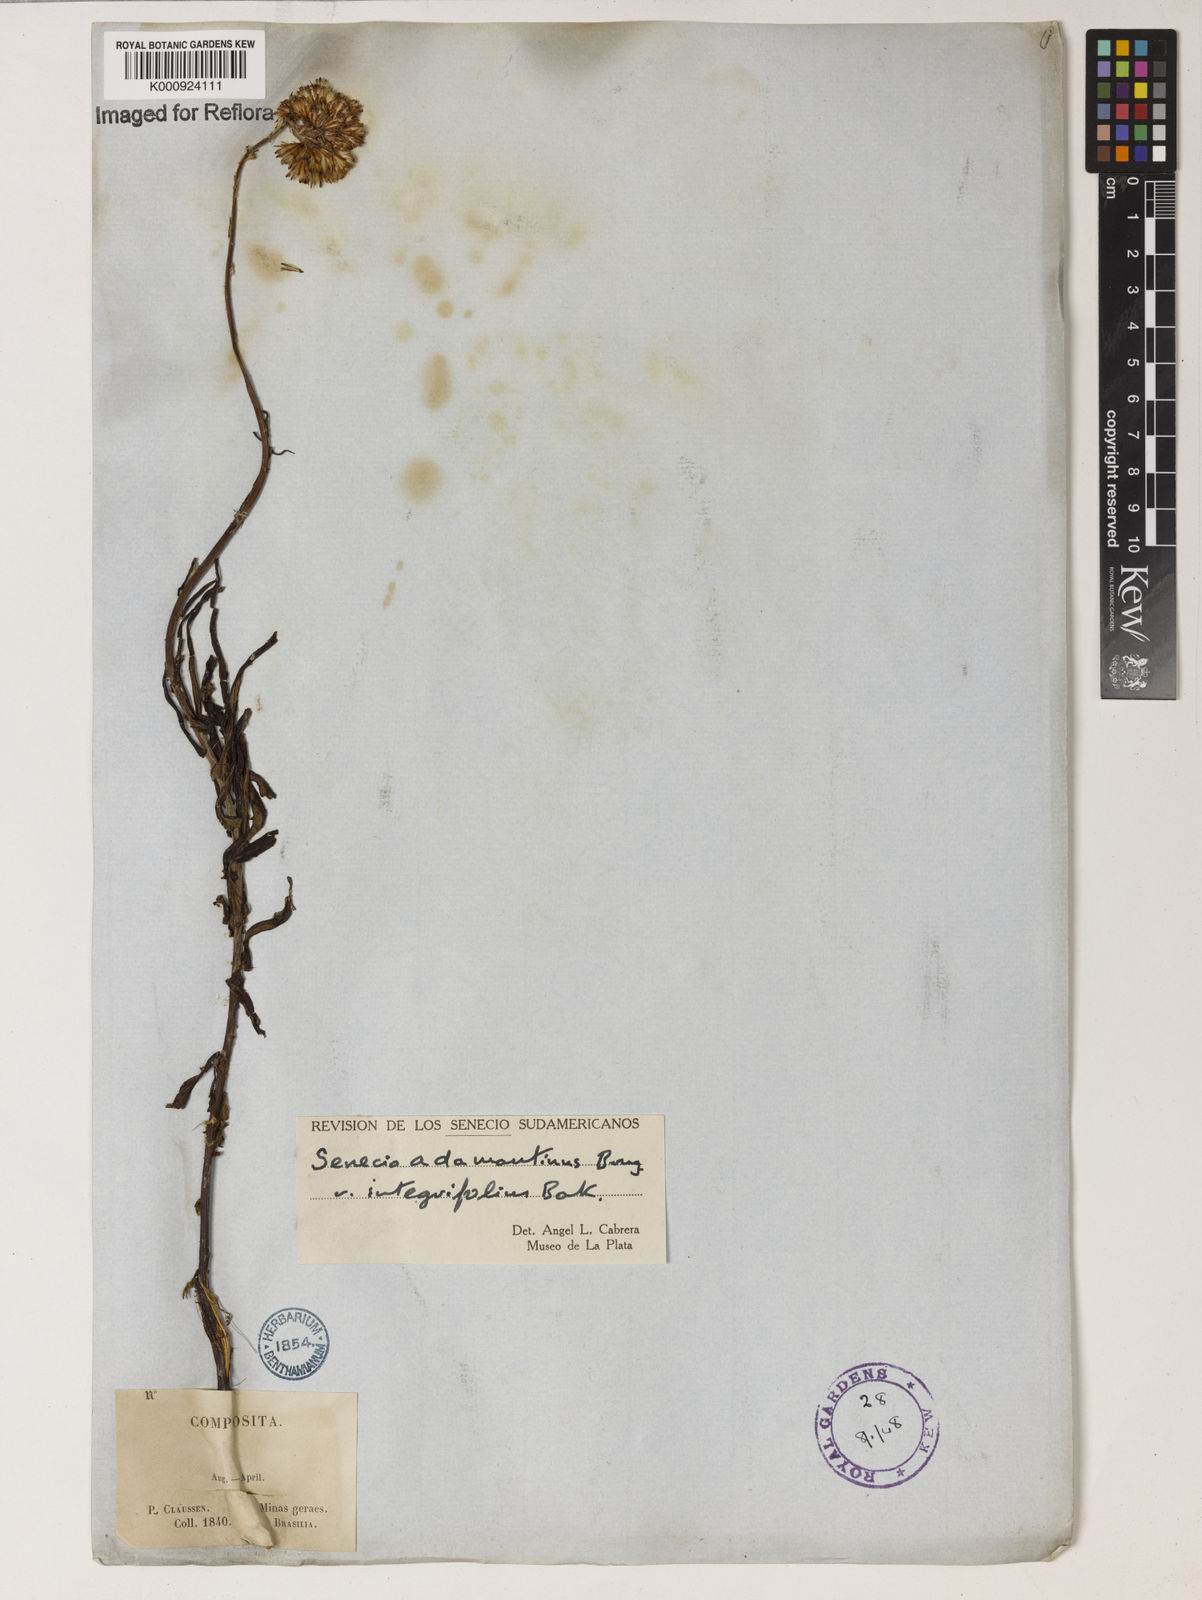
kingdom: Plantae
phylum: Tracheophyta
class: Magnoliopsida
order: Asterales
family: Asteraceae
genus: Senecio
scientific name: Senecio
